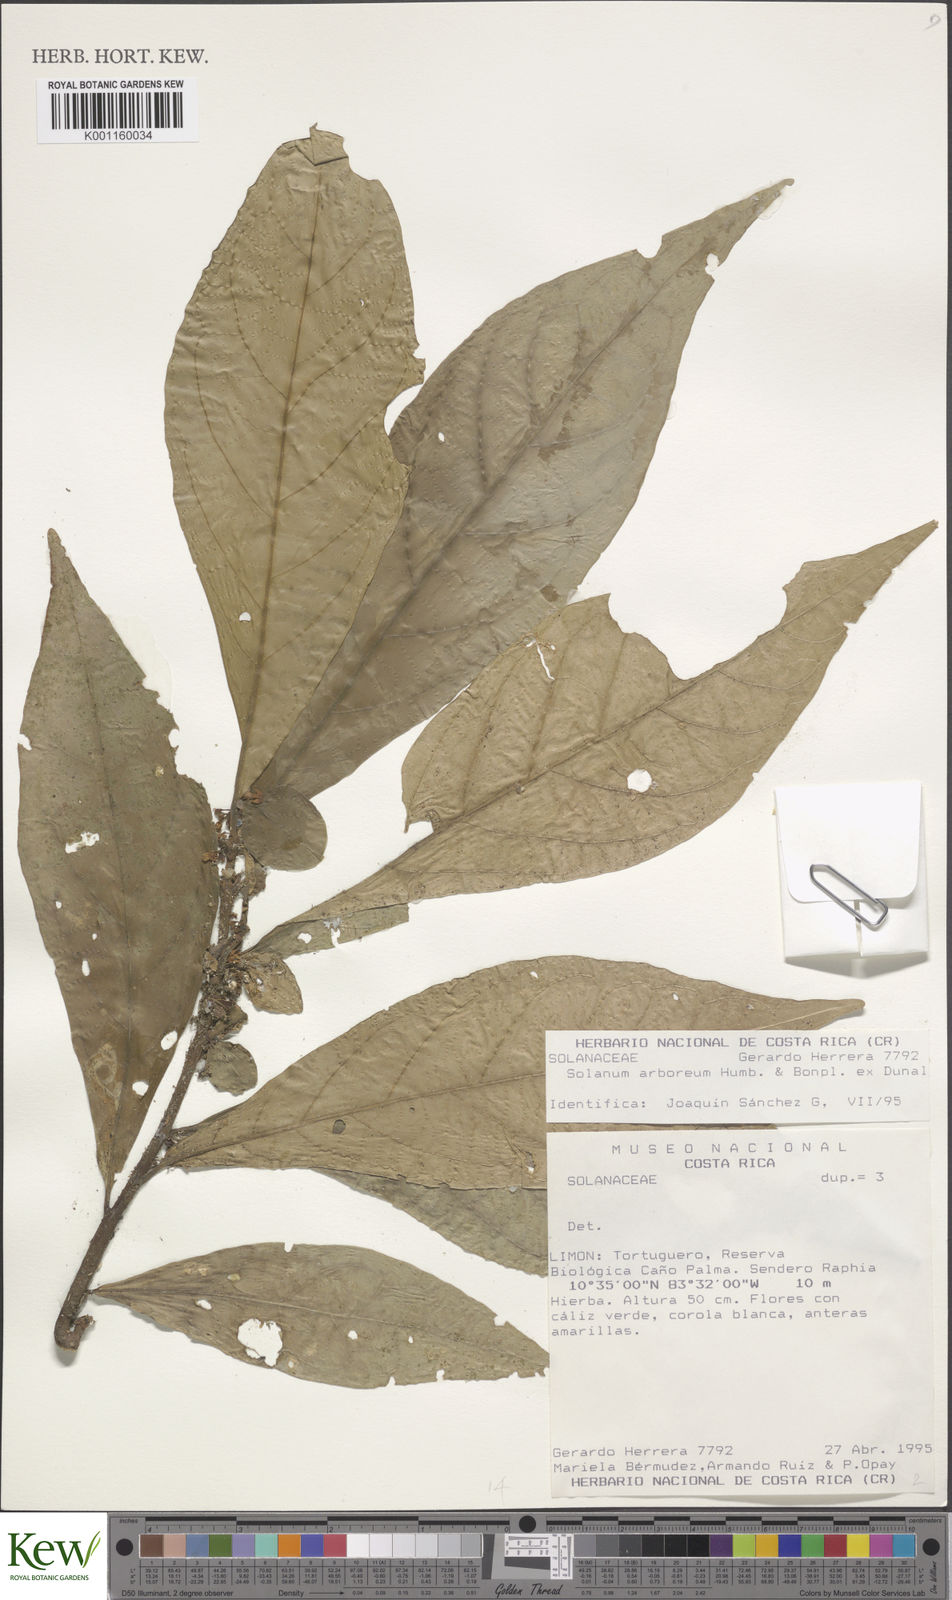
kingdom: Plantae
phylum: Tracheophyta
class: Magnoliopsida
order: Solanales
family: Solanaceae
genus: Solanum
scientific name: Solanum arboreum
